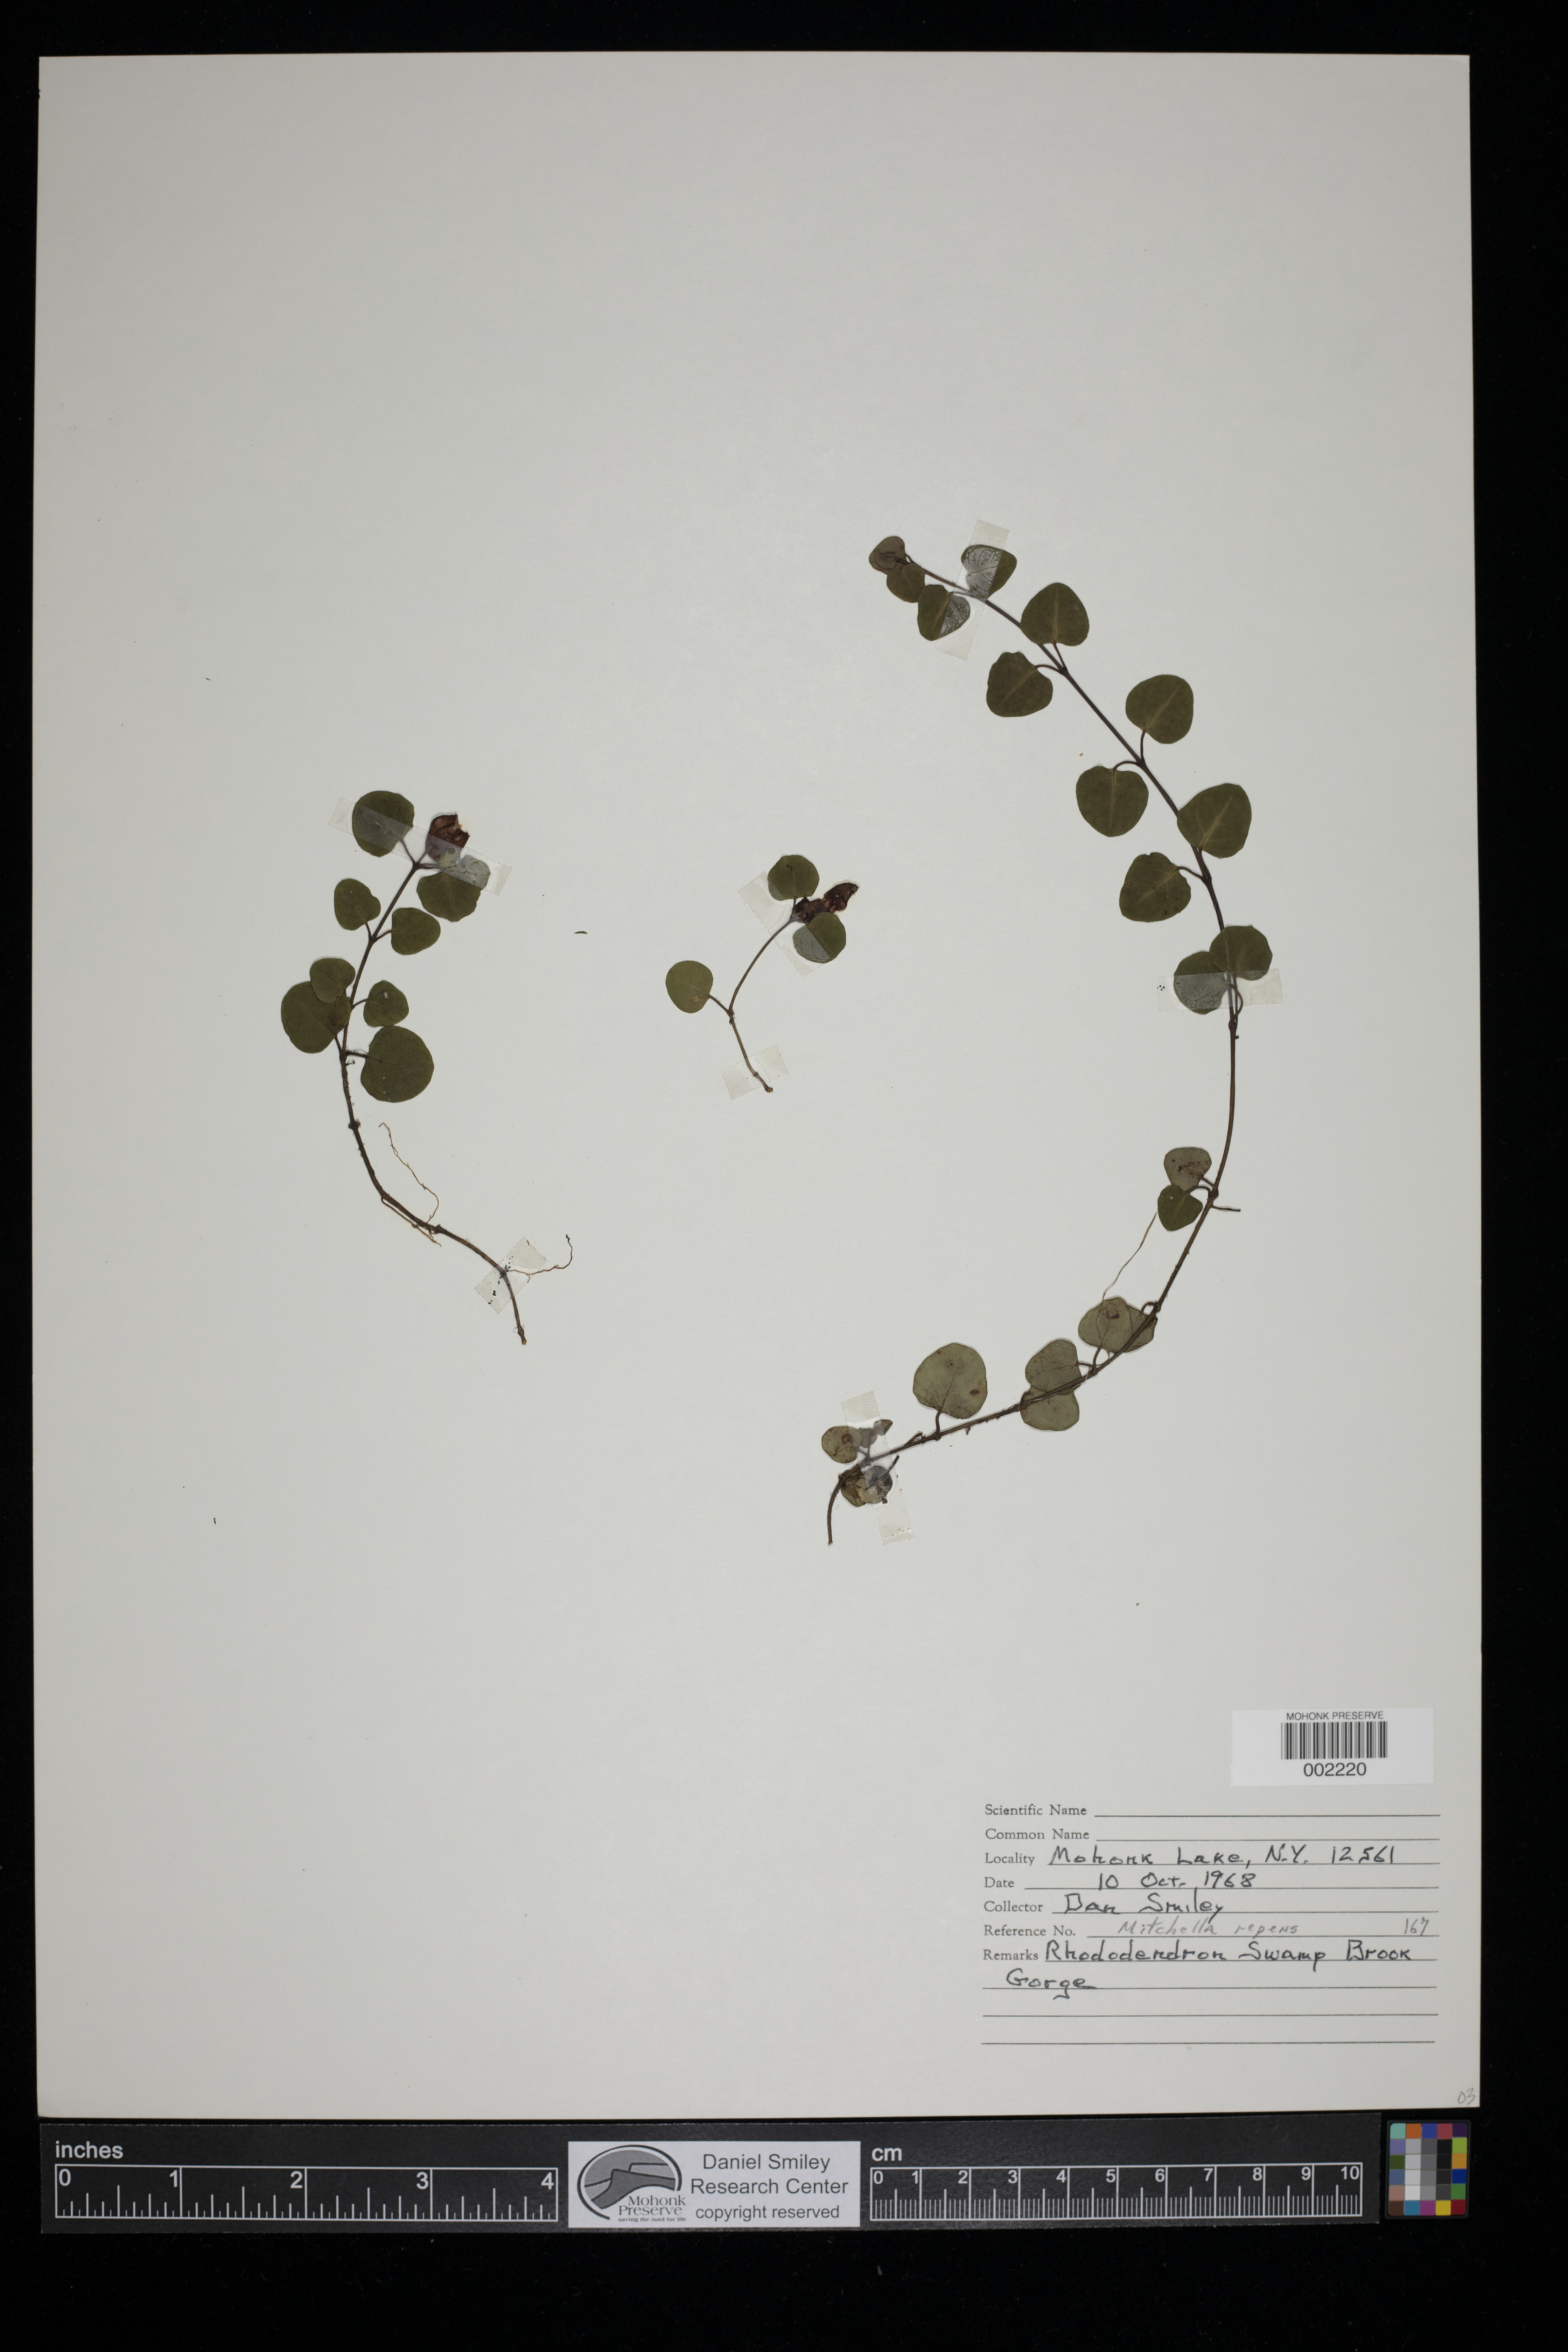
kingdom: Plantae
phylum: Tracheophyta
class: Magnoliopsida
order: Gentianales
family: Rubiaceae
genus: Mitchella
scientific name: Mitchella repens
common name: Partridge-berry
